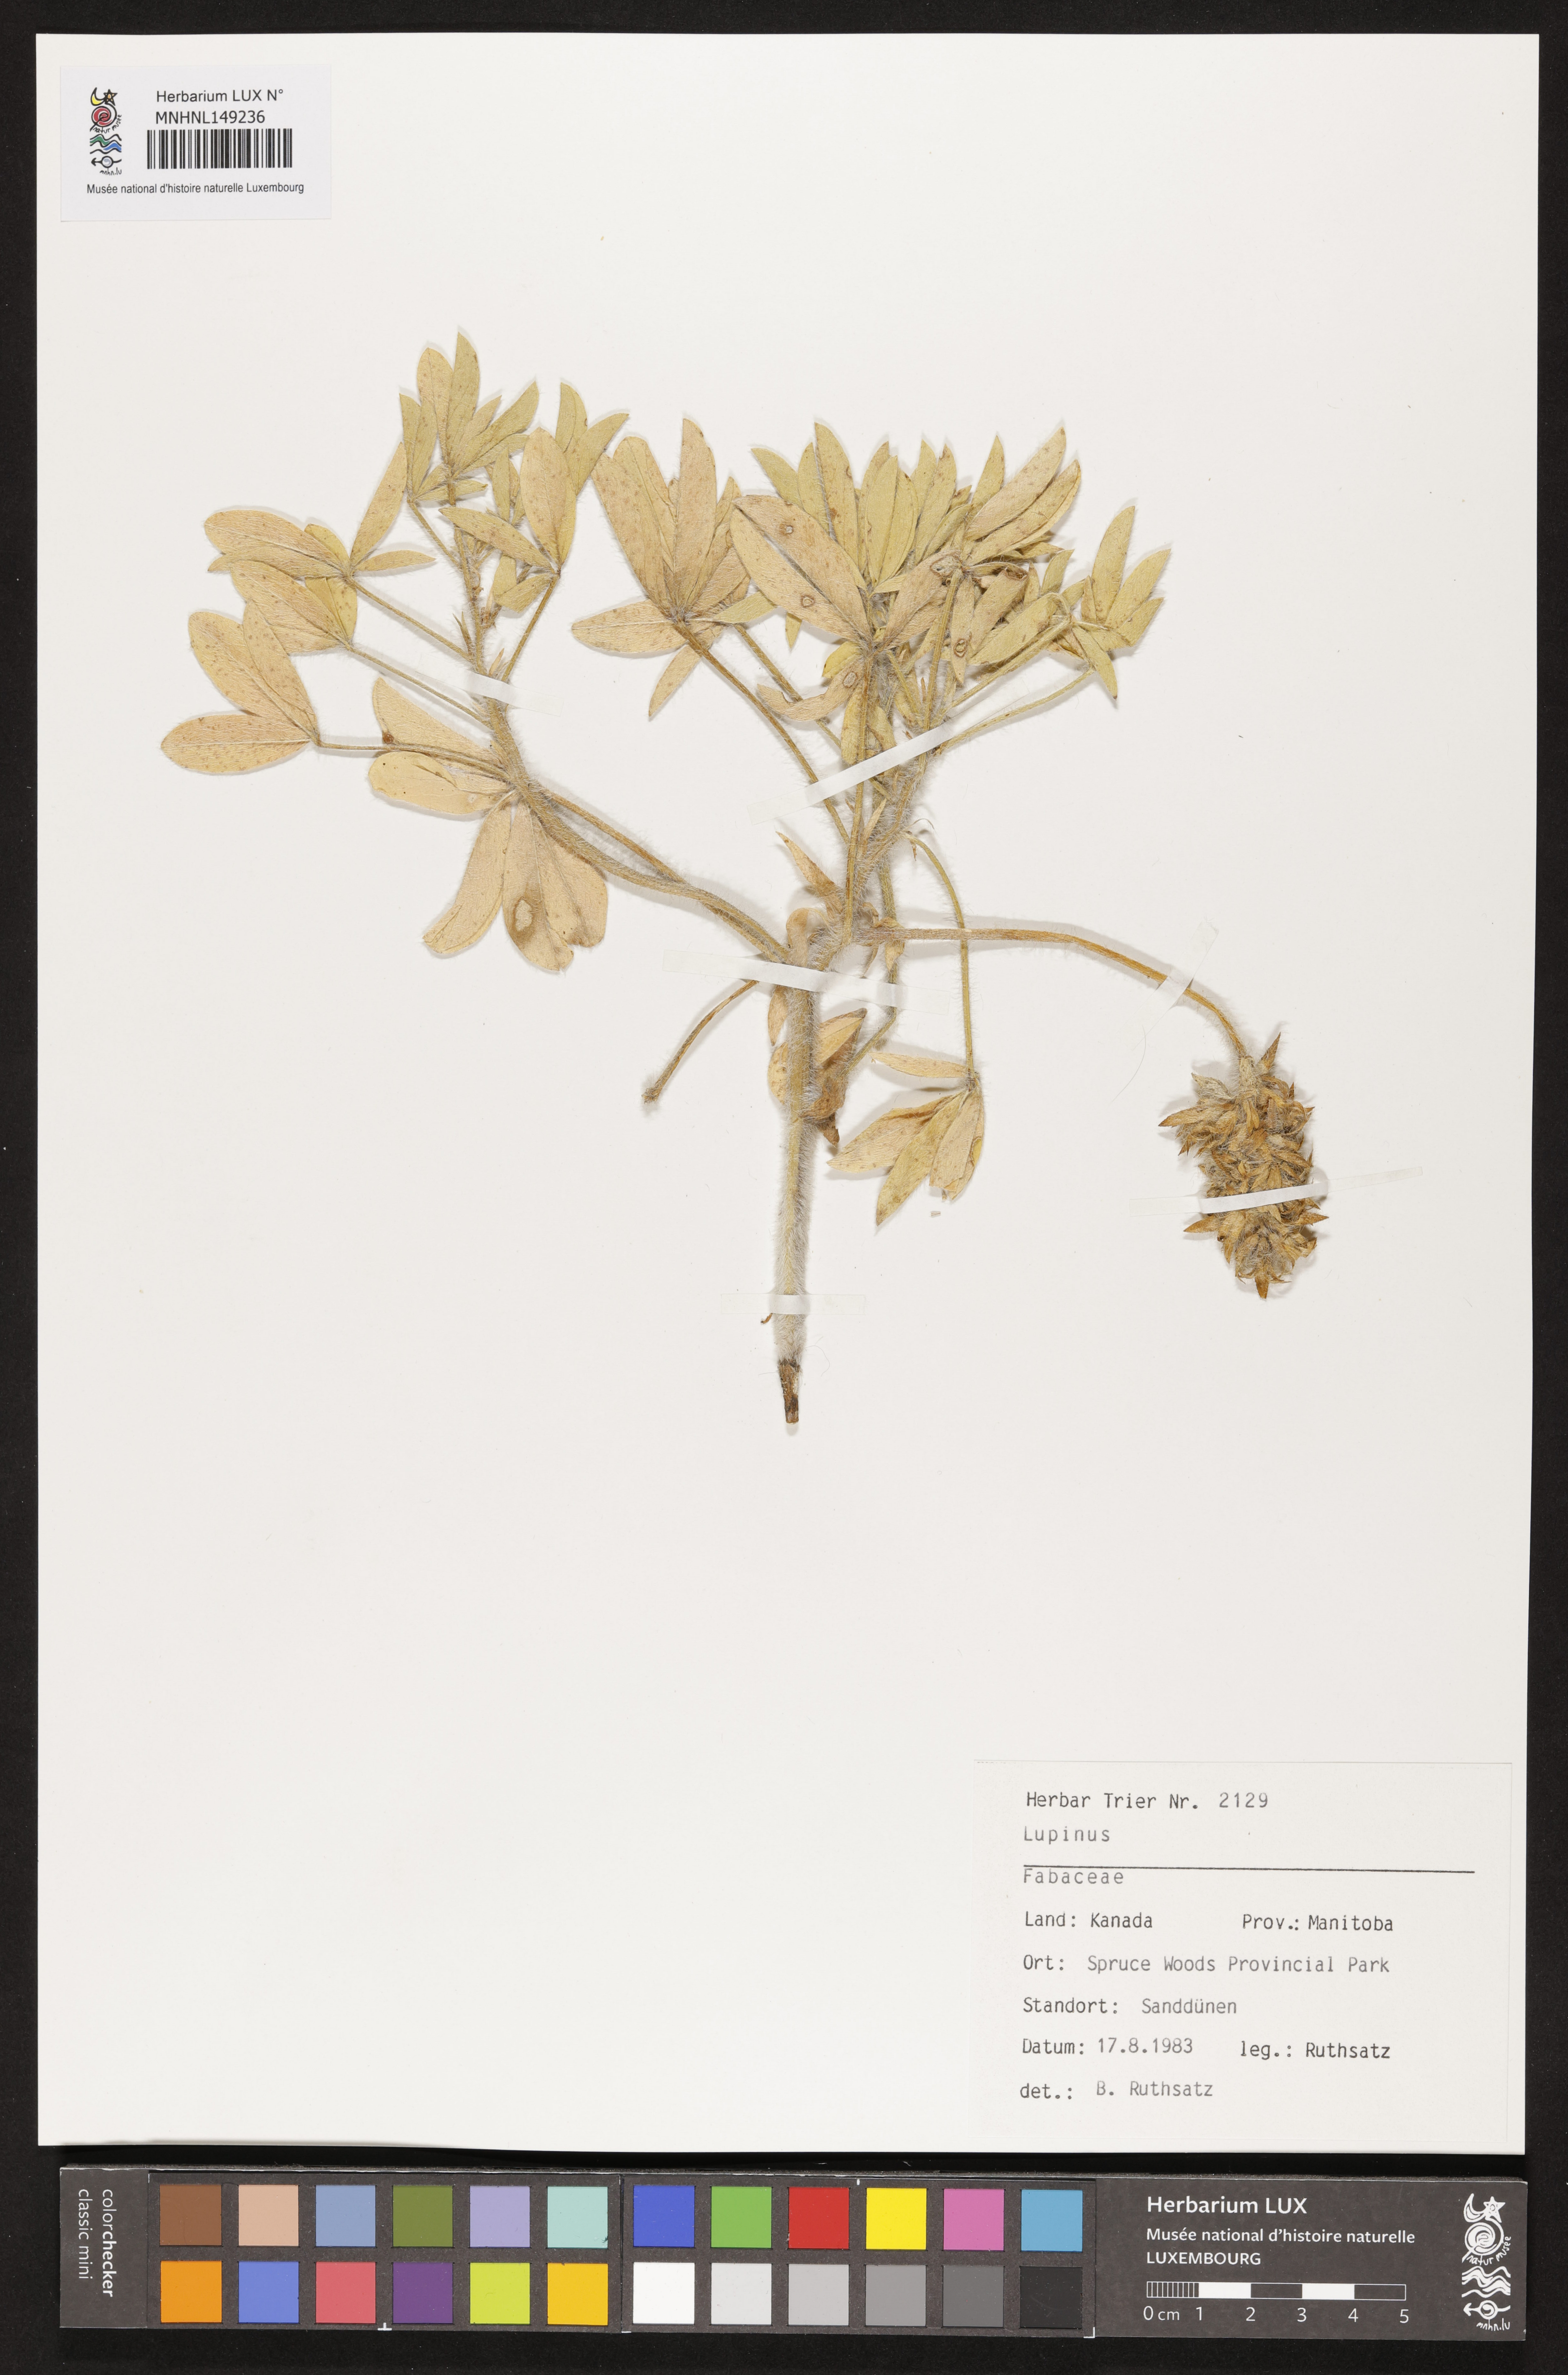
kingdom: Plantae
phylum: Tracheophyta
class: Magnoliopsida
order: Fabales
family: Fabaceae
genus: Lupinus
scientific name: Lupinus
